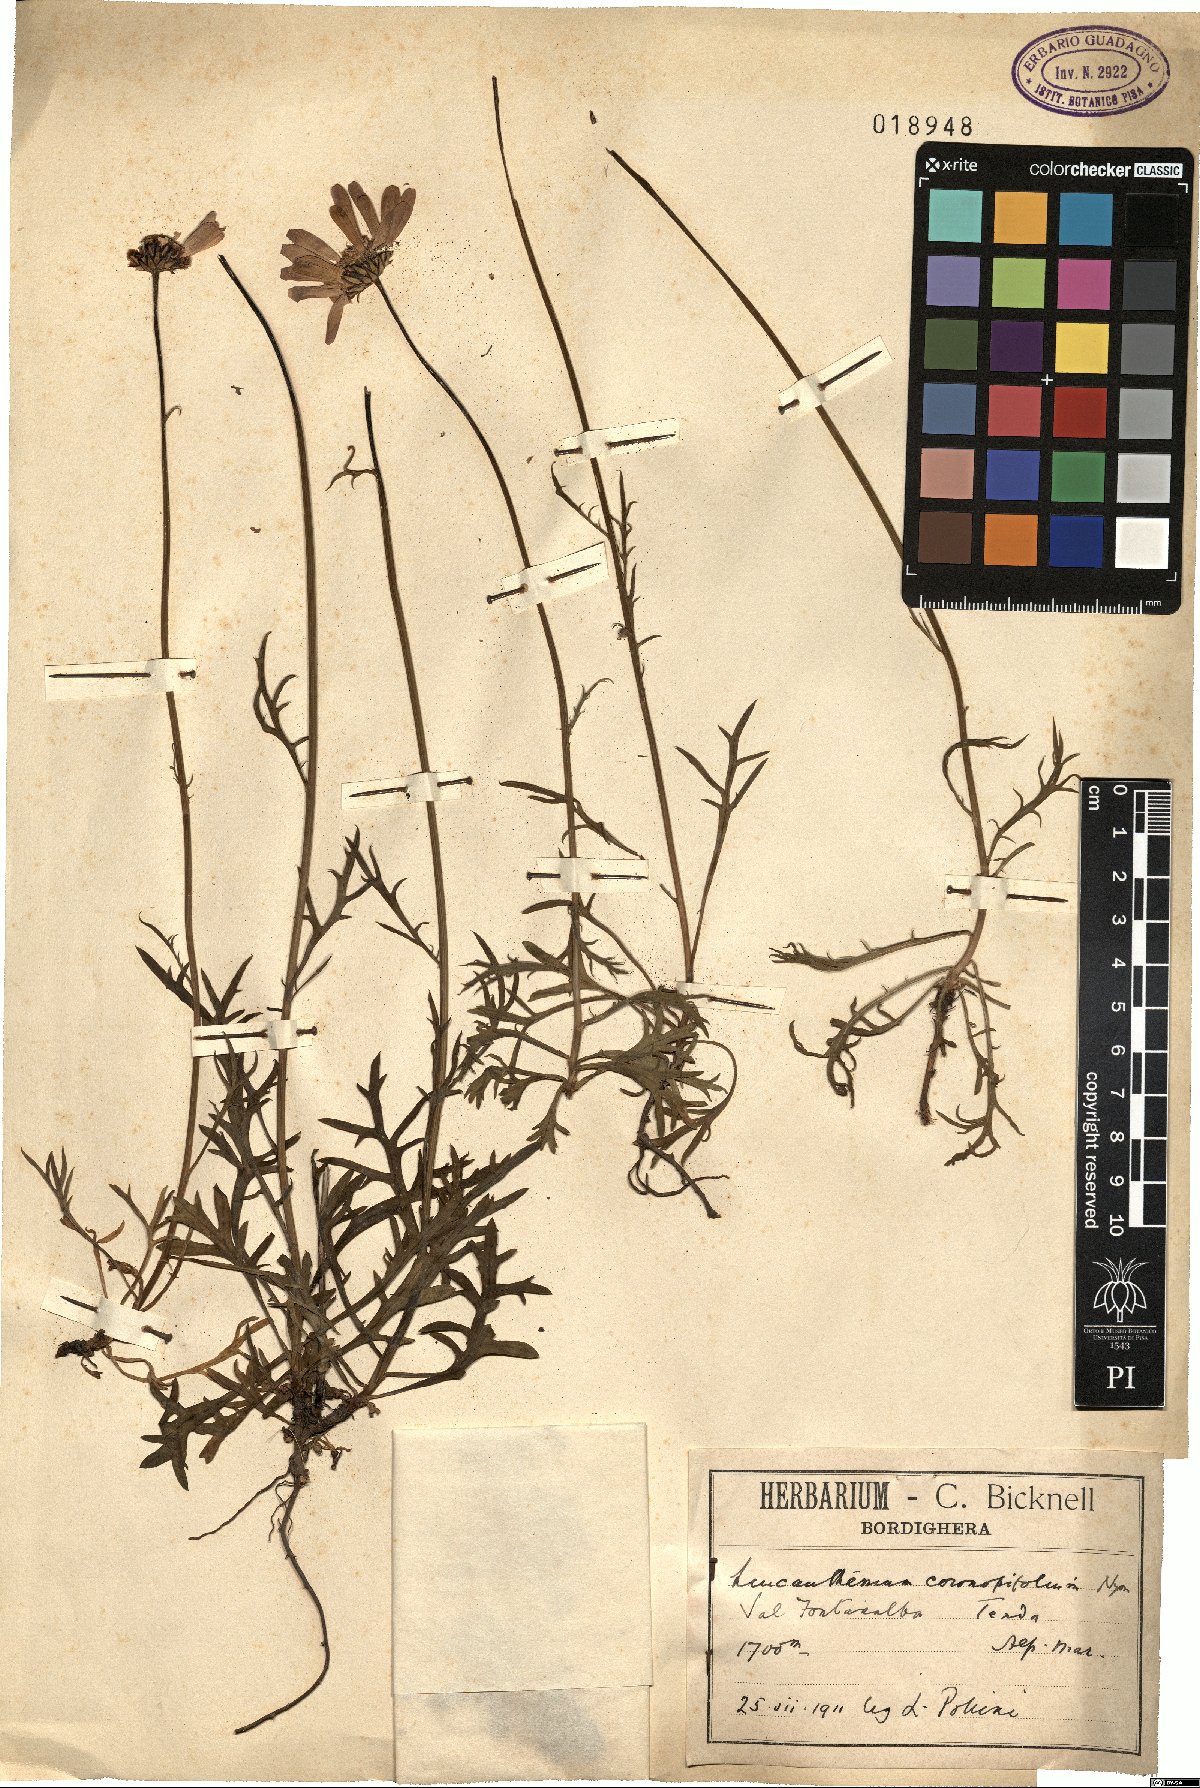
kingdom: Plantae
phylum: Tracheophyta
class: Magnoliopsida
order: Asterales
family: Asteraceae
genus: Leucanthemum
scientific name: Leucanthemum coronopifolium
